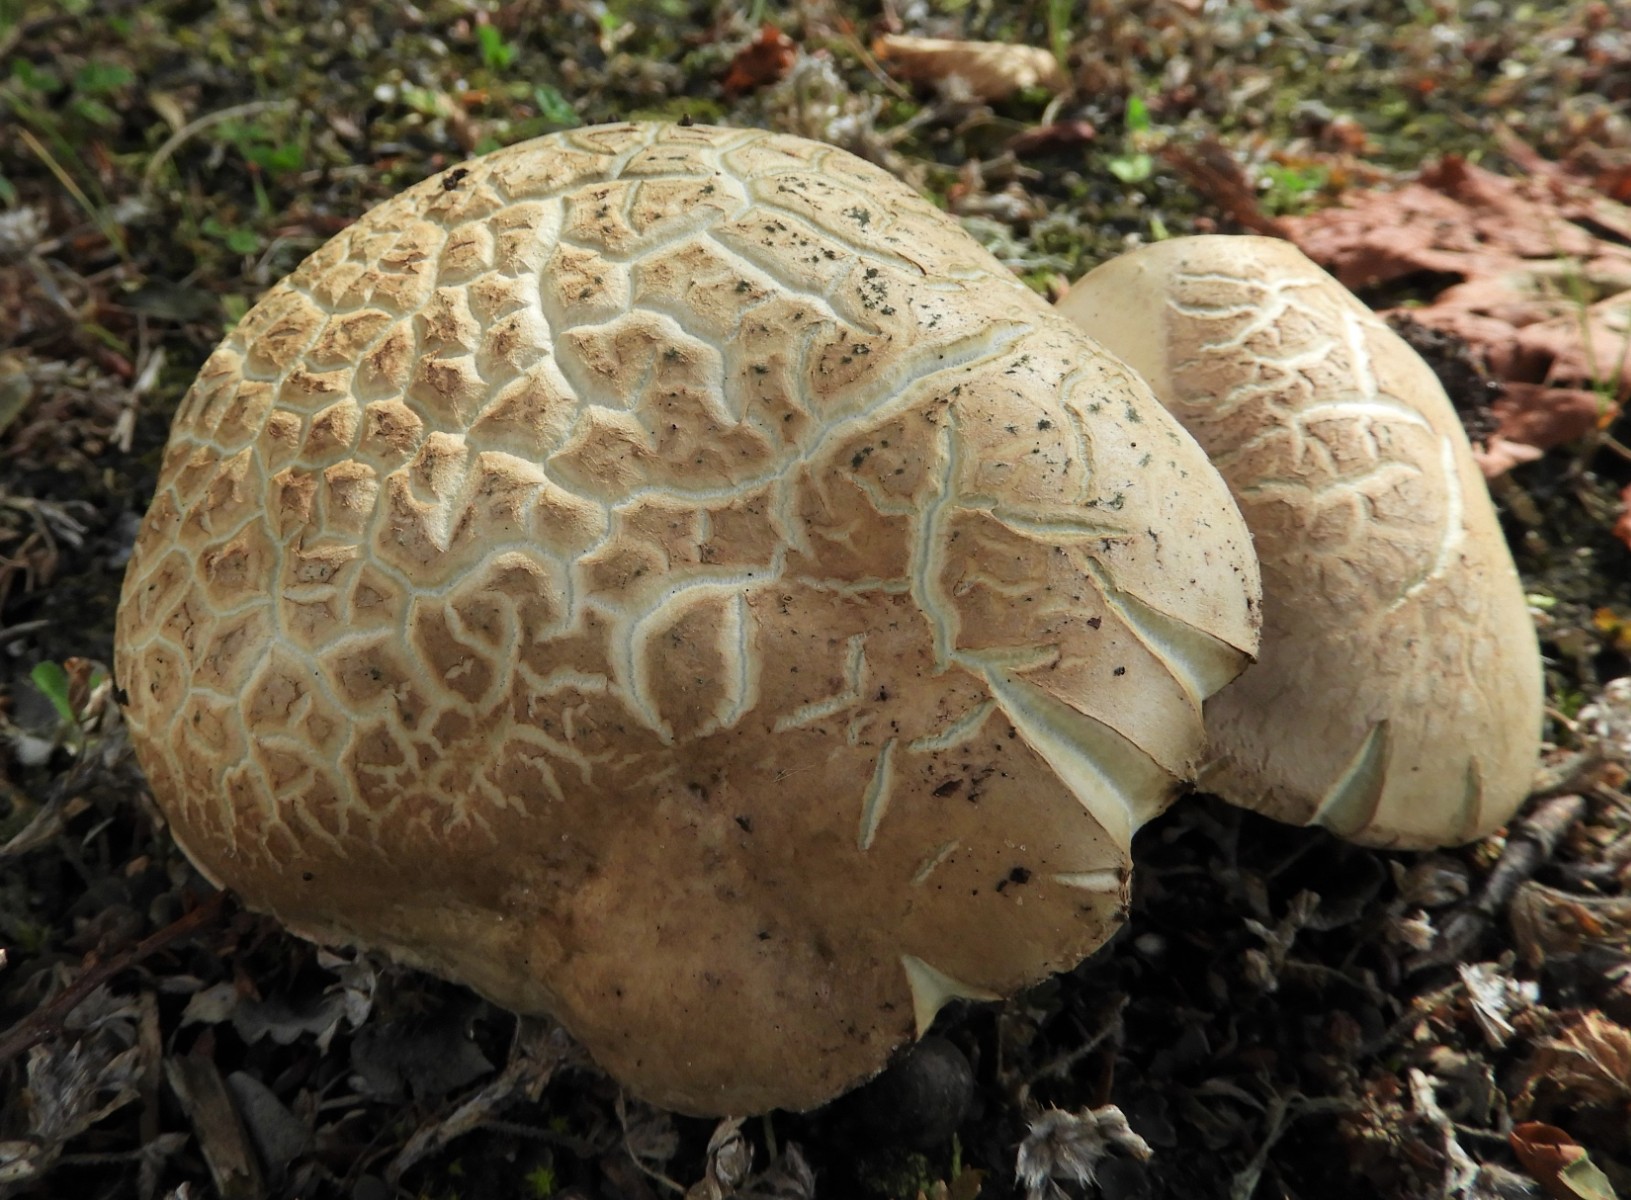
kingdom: Fungi
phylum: Basidiomycota
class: Agaricomycetes
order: Boletales
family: Boletaceae
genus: Caloboletus
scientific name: Caloboletus radicans
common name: rod-rørhat
